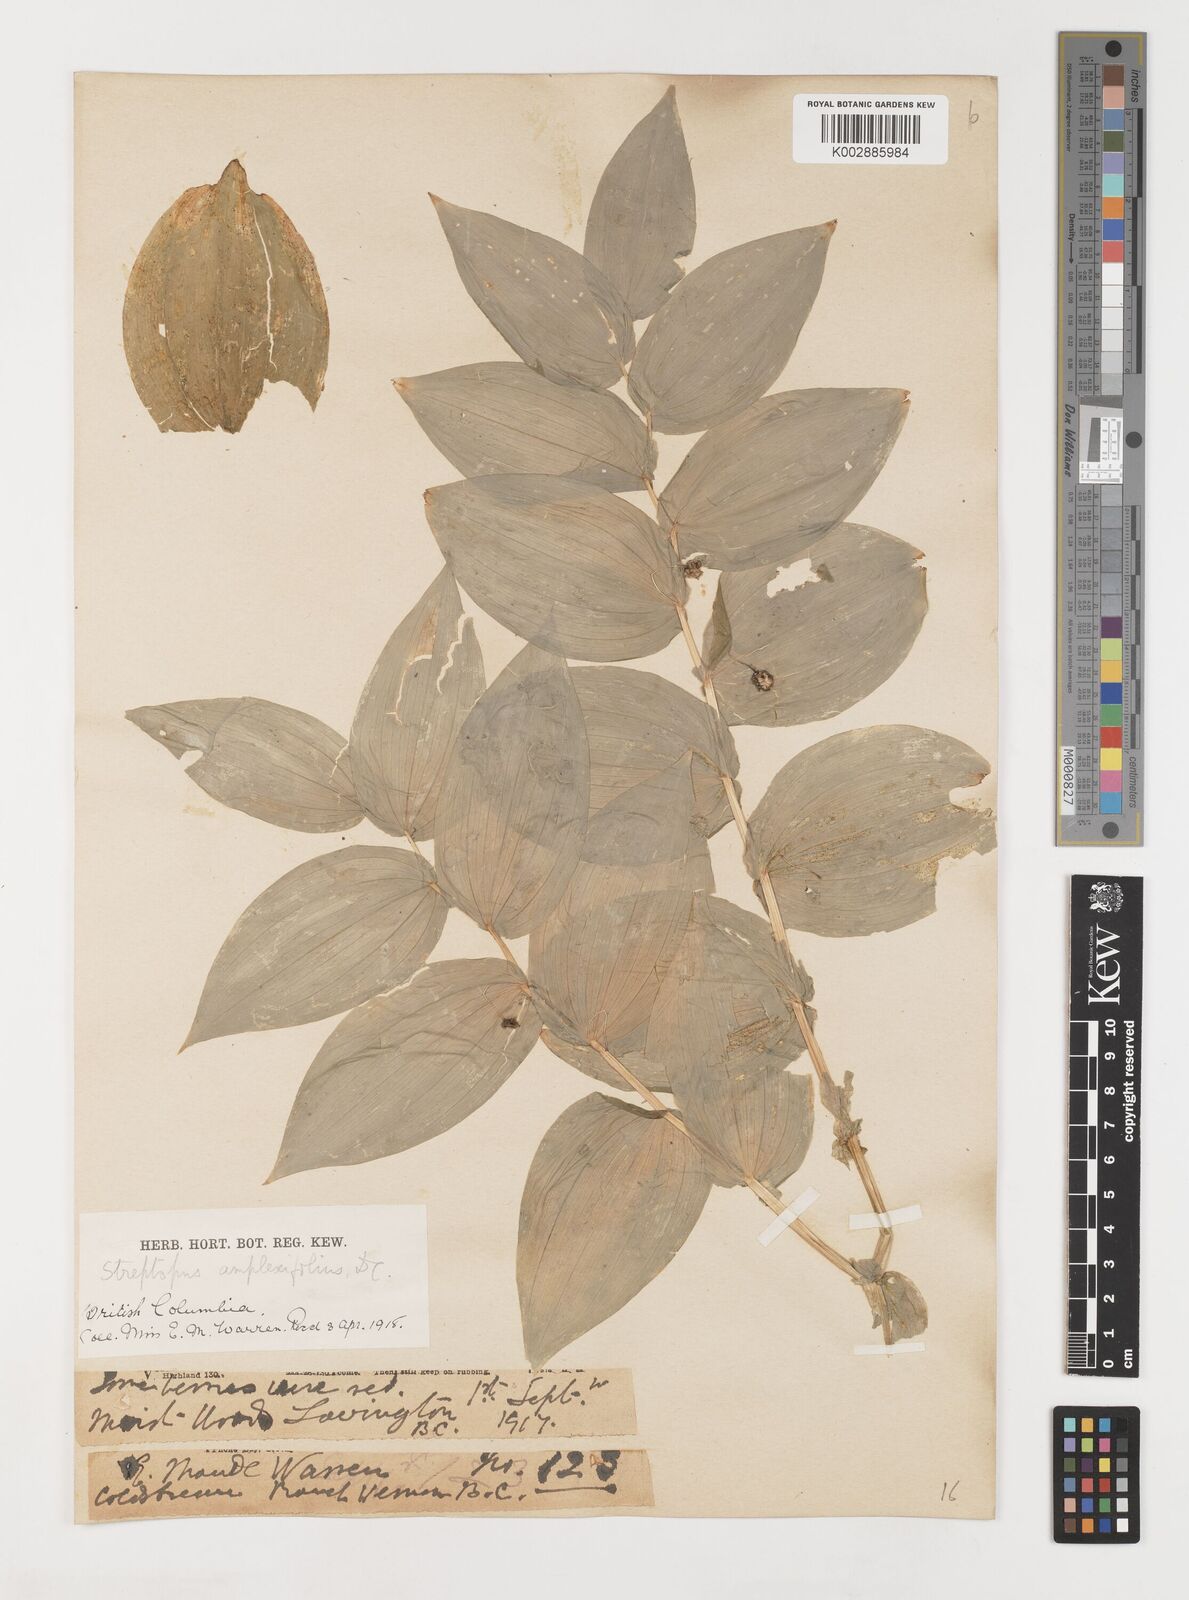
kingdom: Plantae
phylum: Tracheophyta
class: Liliopsida
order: Liliales
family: Liliaceae
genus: Streptopus
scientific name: Streptopus amplexifolius
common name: Clasp twisted stalk
